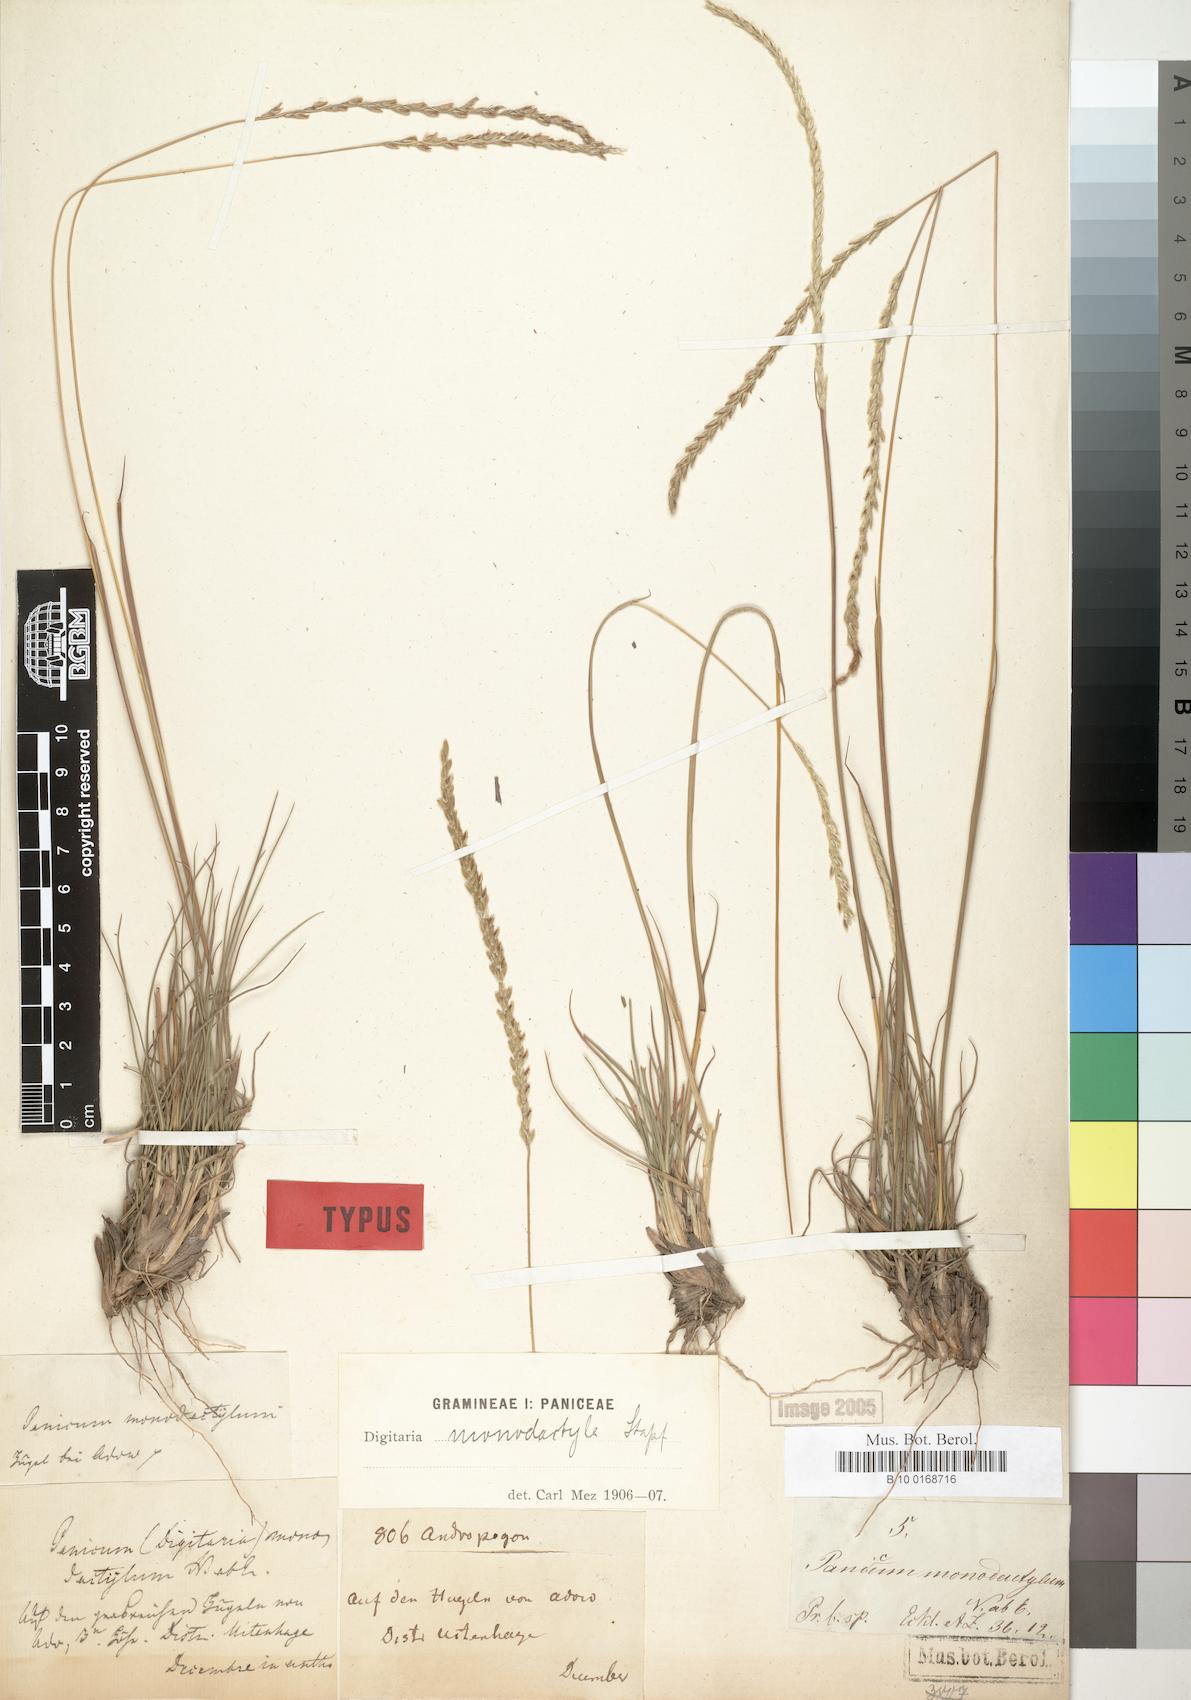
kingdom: Plantae
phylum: Tracheophyta
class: Liliopsida
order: Poales
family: Poaceae
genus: Digitaria
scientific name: Digitaria monodactyla
